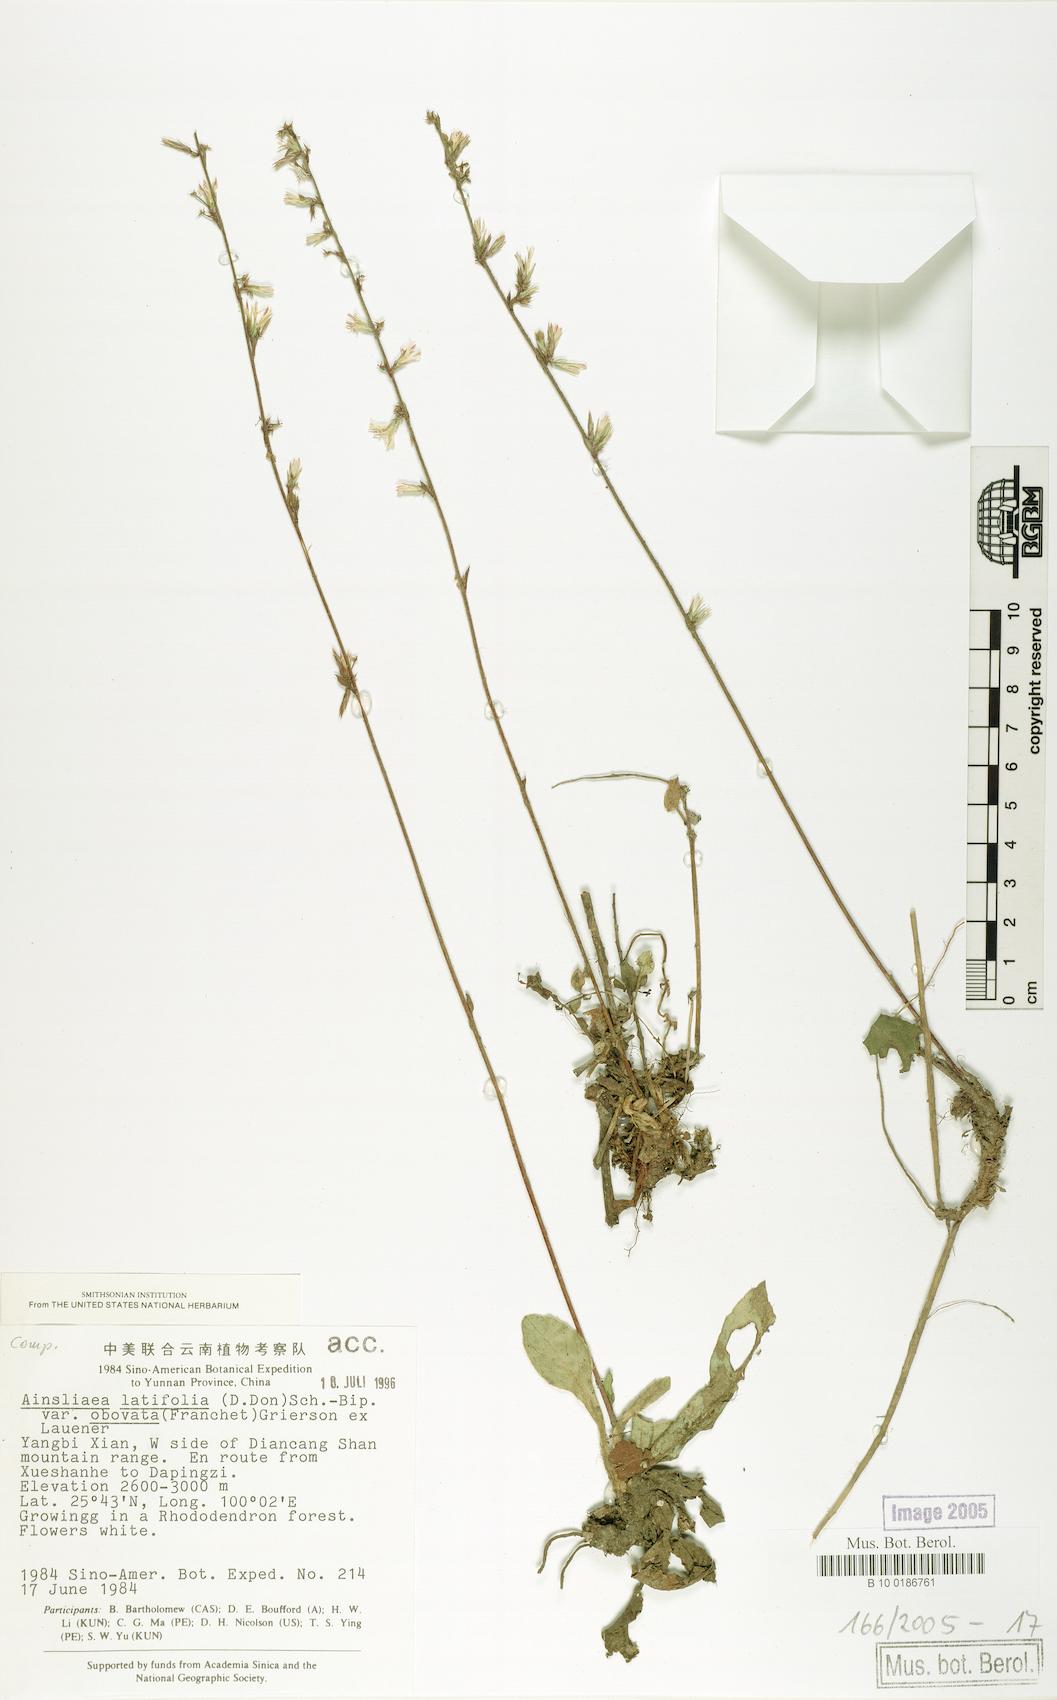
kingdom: Plantae
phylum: Tracheophyta
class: Magnoliopsida
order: Asterales
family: Asteraceae
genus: Ainsliaea
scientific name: Ainsliaea spicata
